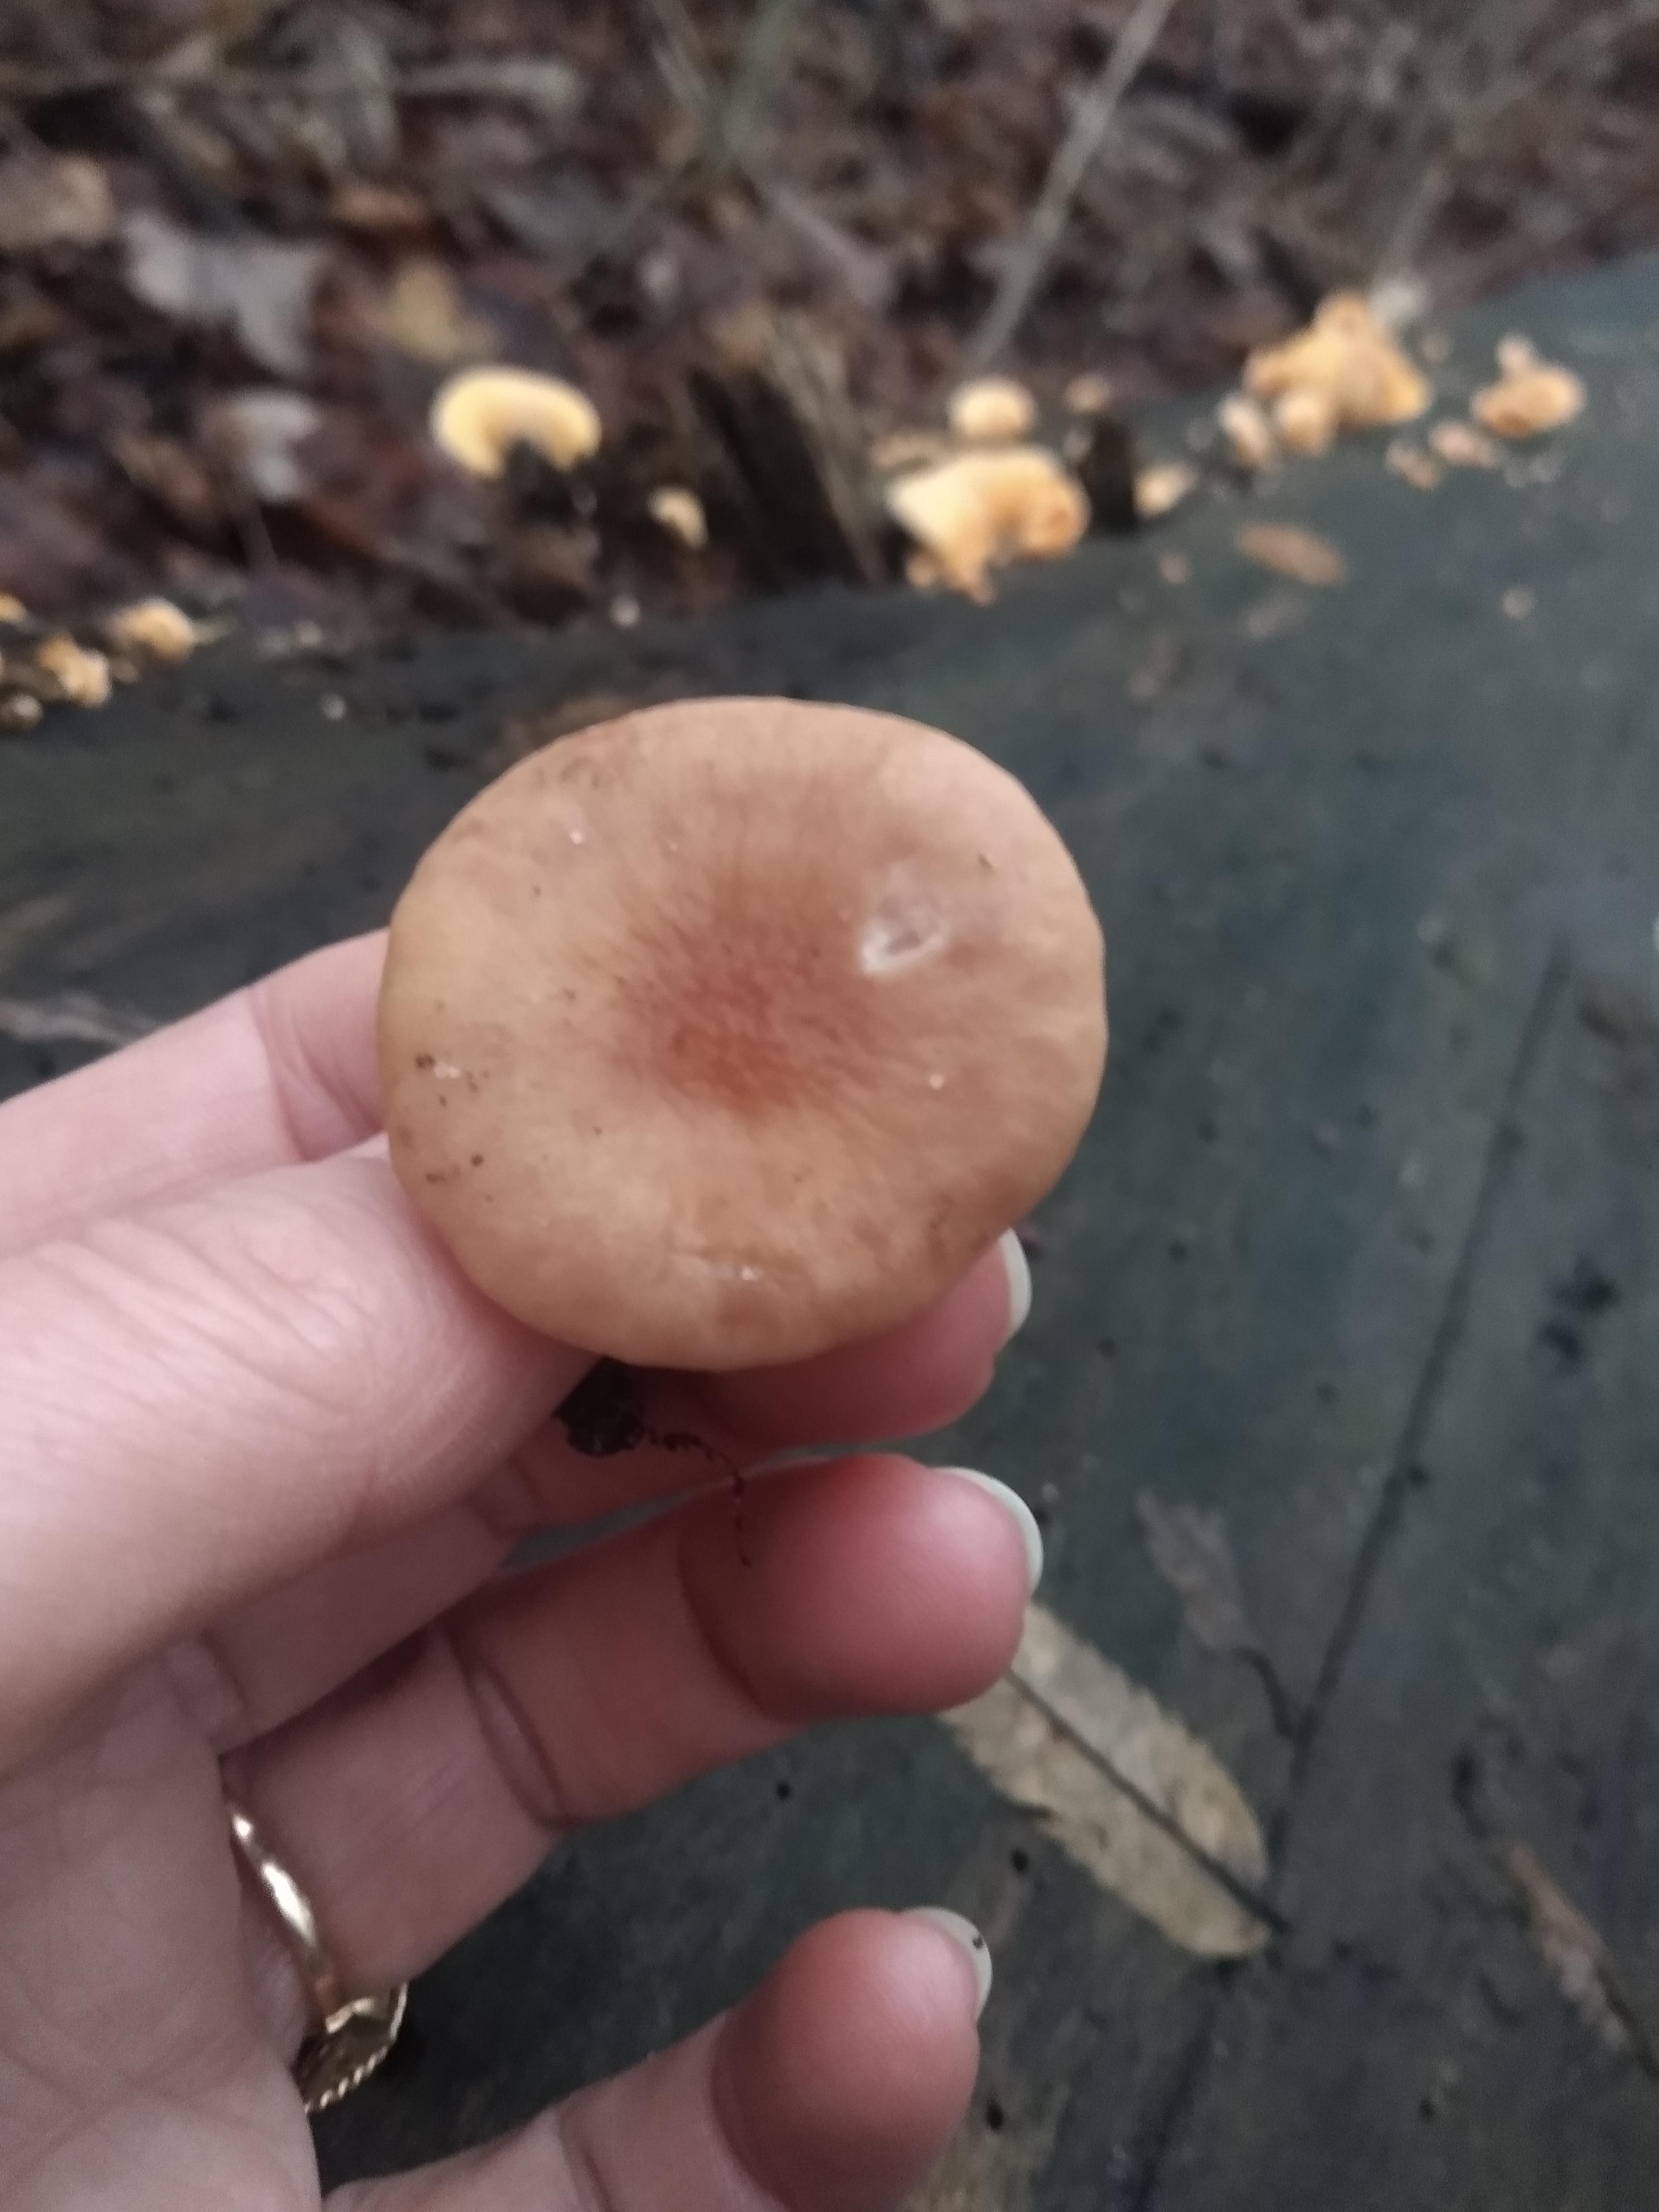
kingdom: Fungi
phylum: Basidiomycota
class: Agaricomycetes
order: Russulales
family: Russulaceae
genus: Lactarius
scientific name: Lactarius
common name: mælkehat
